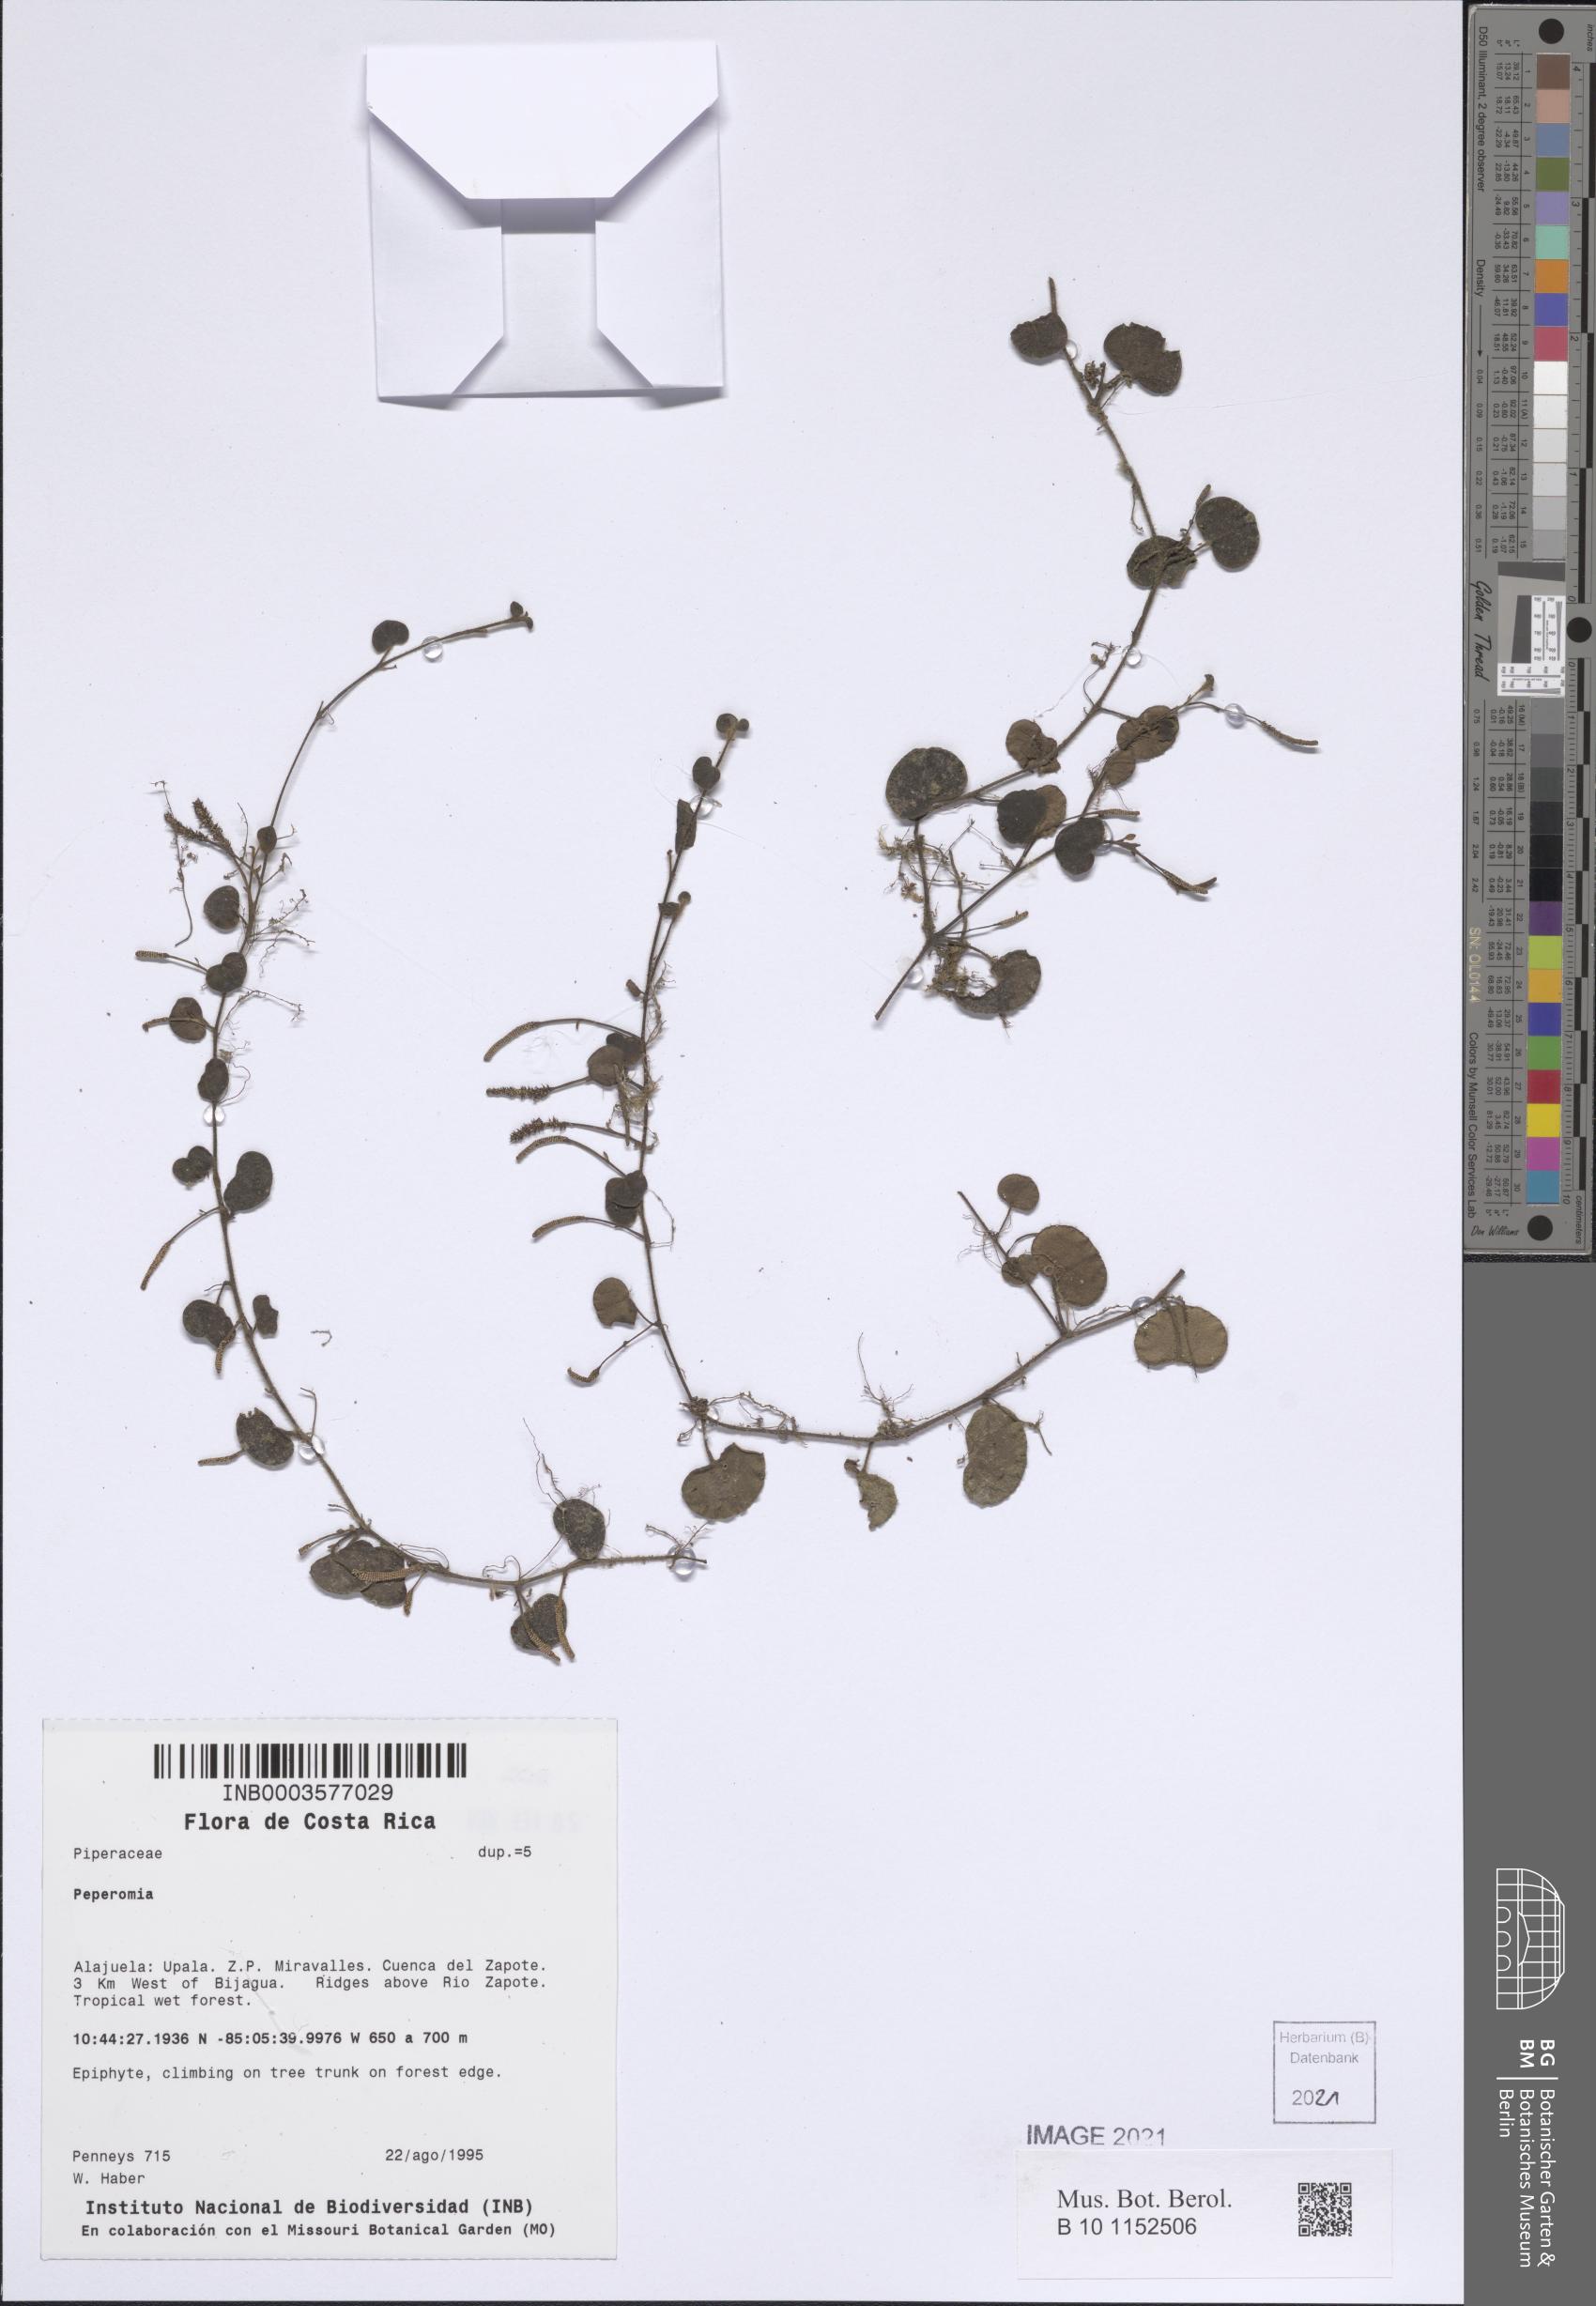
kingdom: Plantae
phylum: Tracheophyta
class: Magnoliopsida
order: Piperales
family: Piperaceae
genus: Peperomia
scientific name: Peperomia
